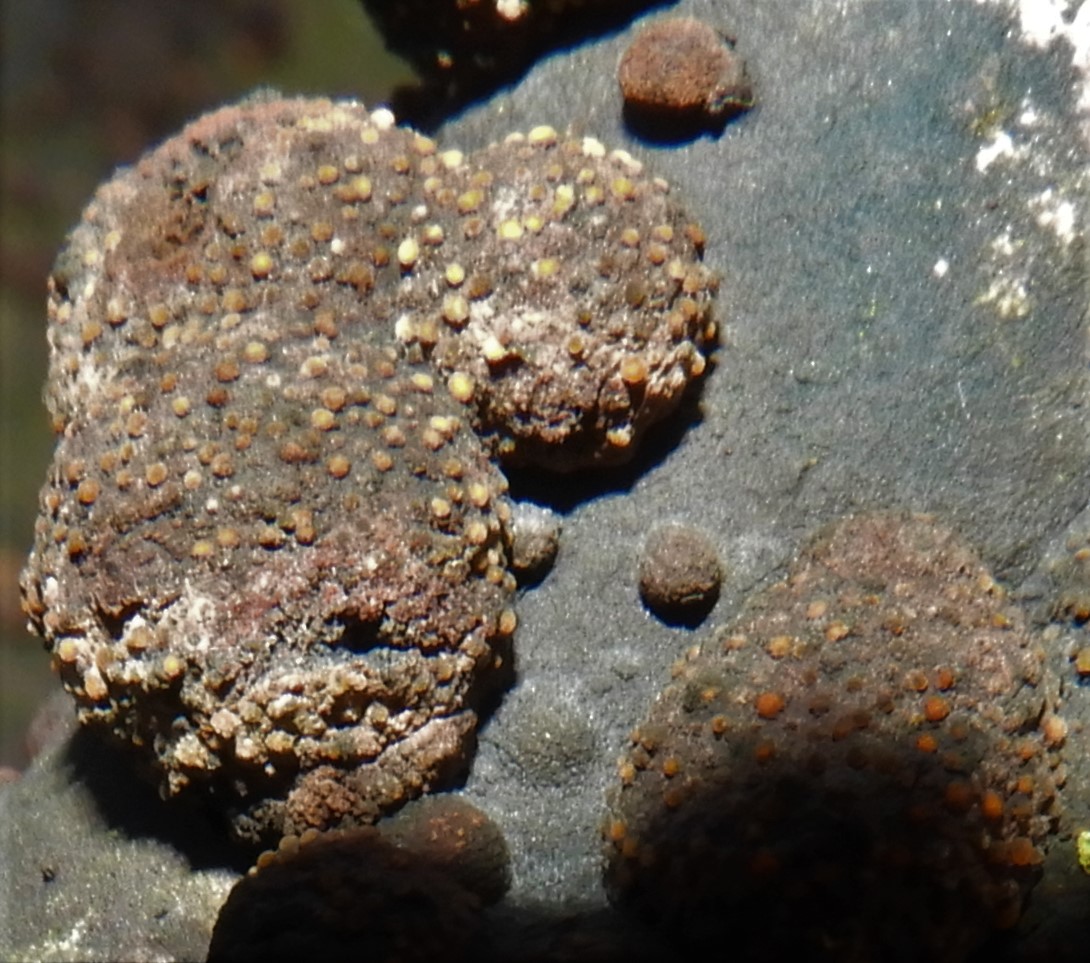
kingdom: Fungi
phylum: Ascomycota
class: Sordariomycetes
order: Xylariales
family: Hypoxylaceae
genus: Hypoxylon
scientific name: Hypoxylon fragiforme
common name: kuljordbær
